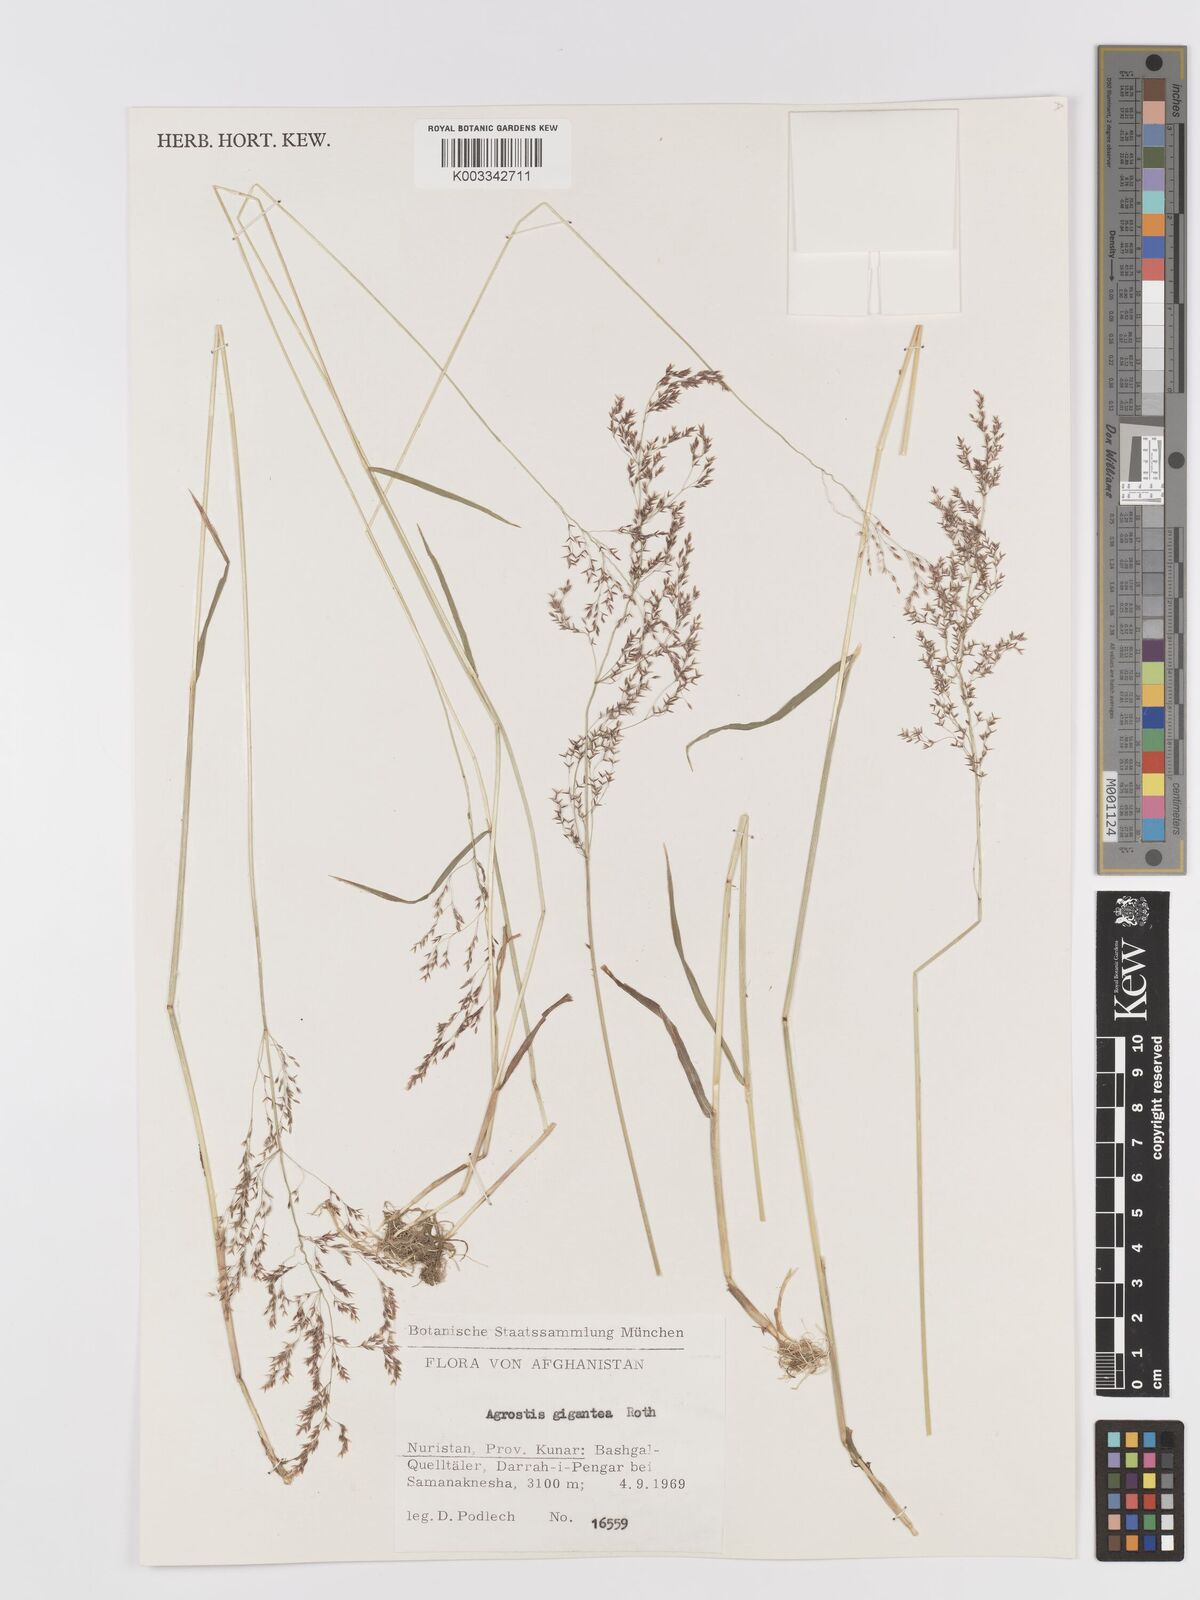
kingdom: Plantae
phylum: Tracheophyta
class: Liliopsida
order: Poales
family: Poaceae
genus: Agrostis
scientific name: Agrostis gigantea
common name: Black bent
